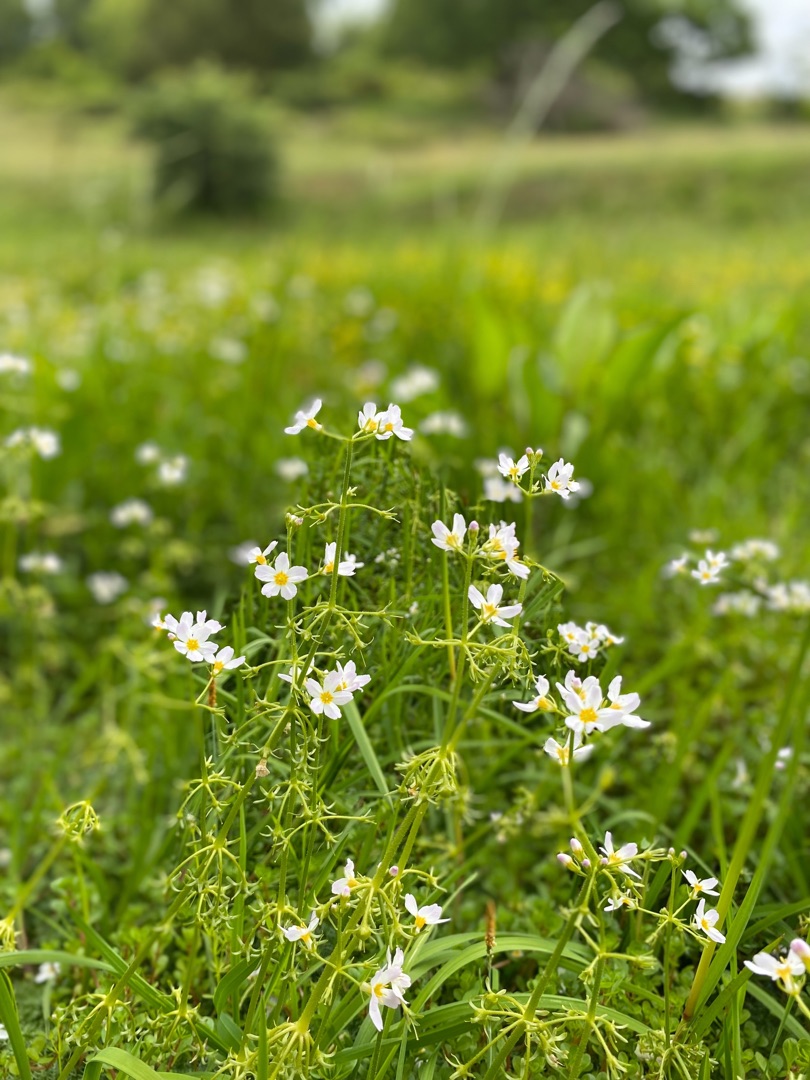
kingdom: Plantae
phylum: Tracheophyta
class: Magnoliopsida
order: Ericales
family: Primulaceae
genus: Hottonia
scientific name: Hottonia palustris
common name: Vandrøllike
